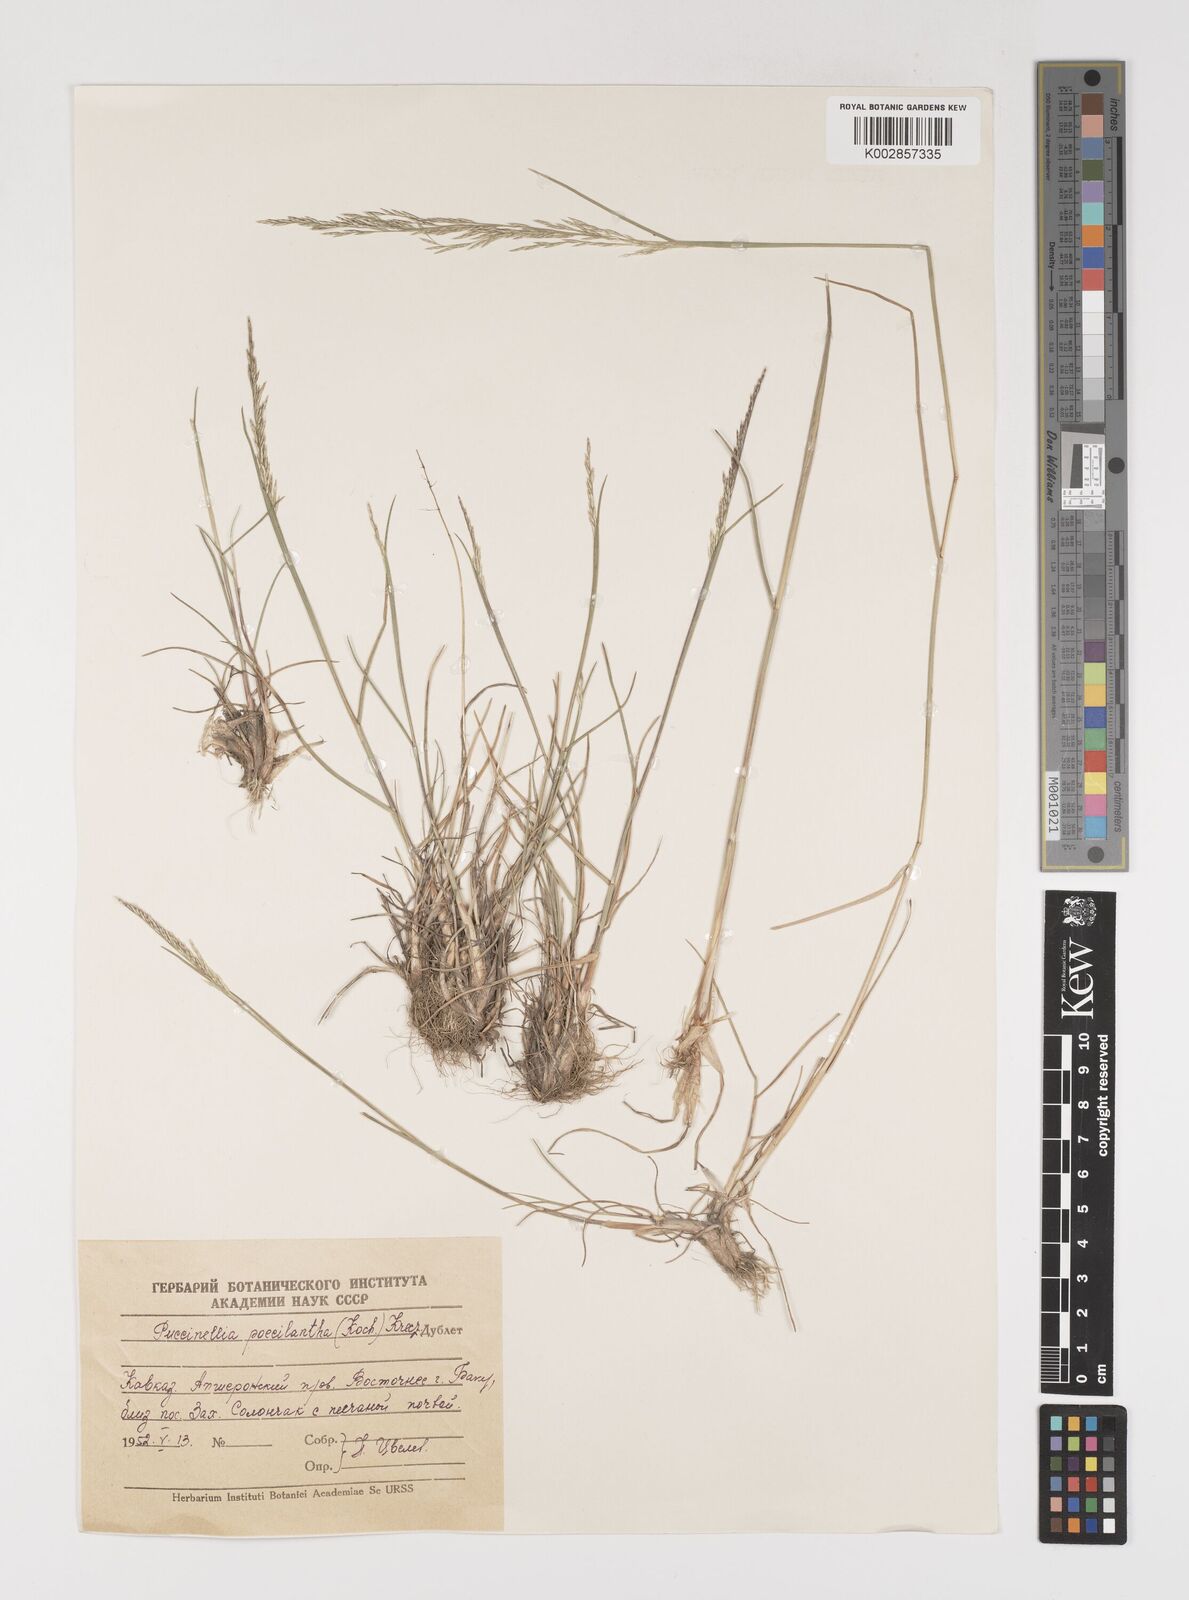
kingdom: Plantae
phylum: Tracheophyta
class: Liliopsida
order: Poales
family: Poaceae
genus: Puccinellia
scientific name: Puccinellia poecilantha
